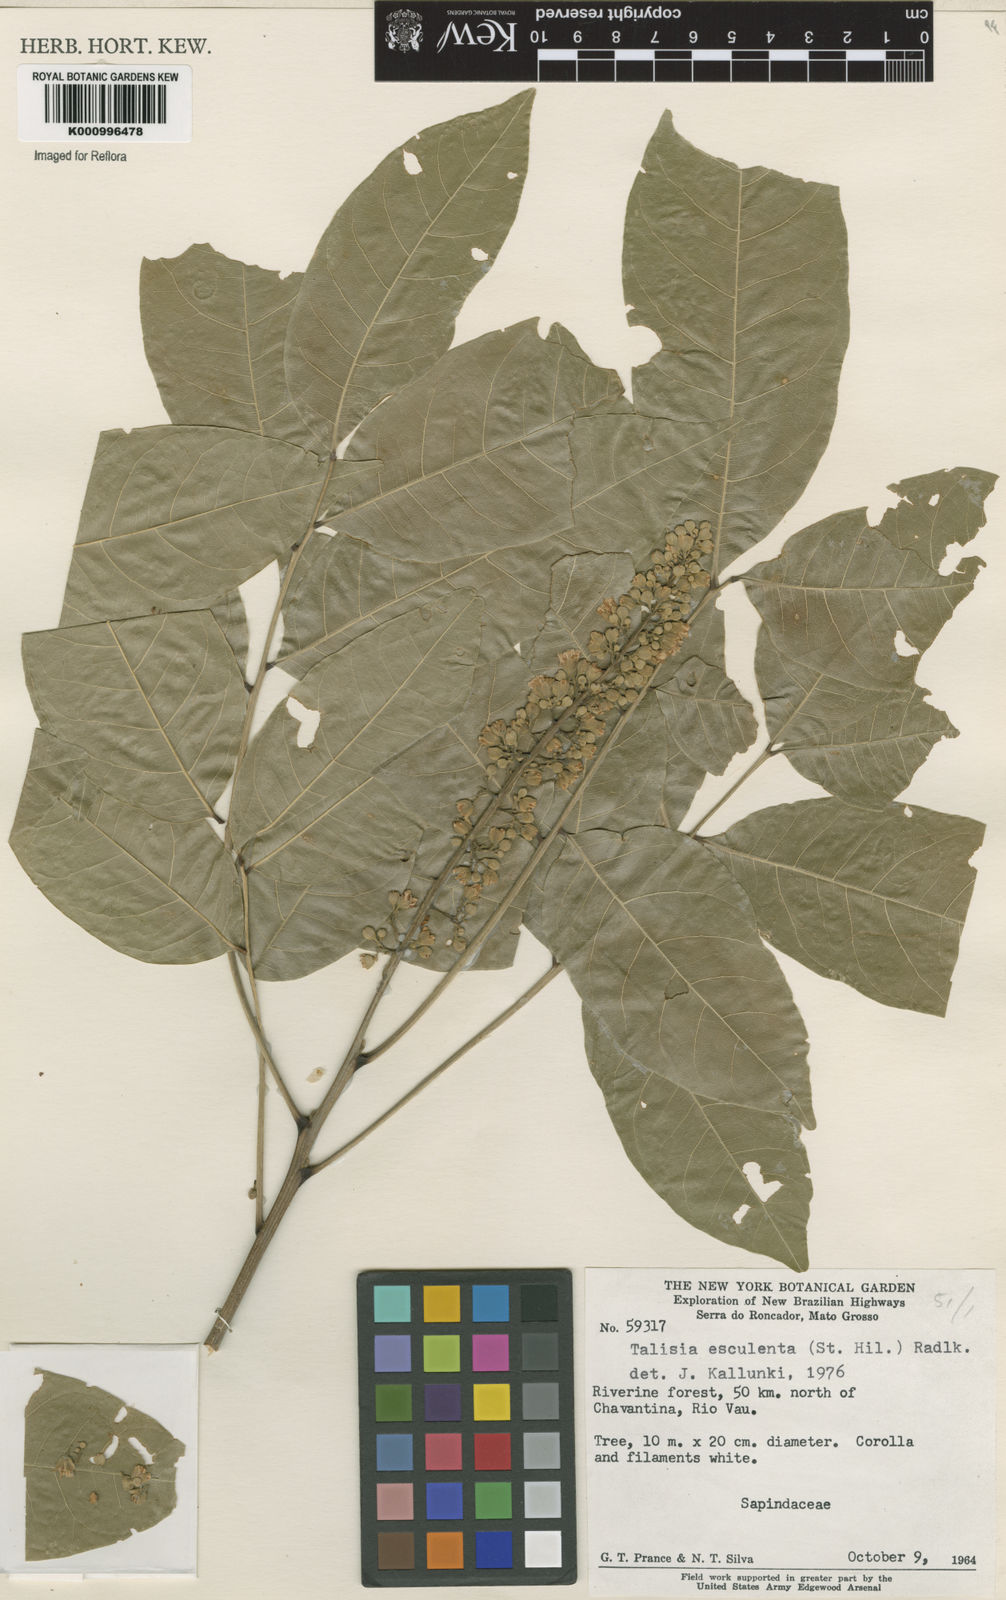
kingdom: Plantae
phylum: Tracheophyta
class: Magnoliopsida
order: Sapindales
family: Sapindaceae
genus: Talisia
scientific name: Talisia
